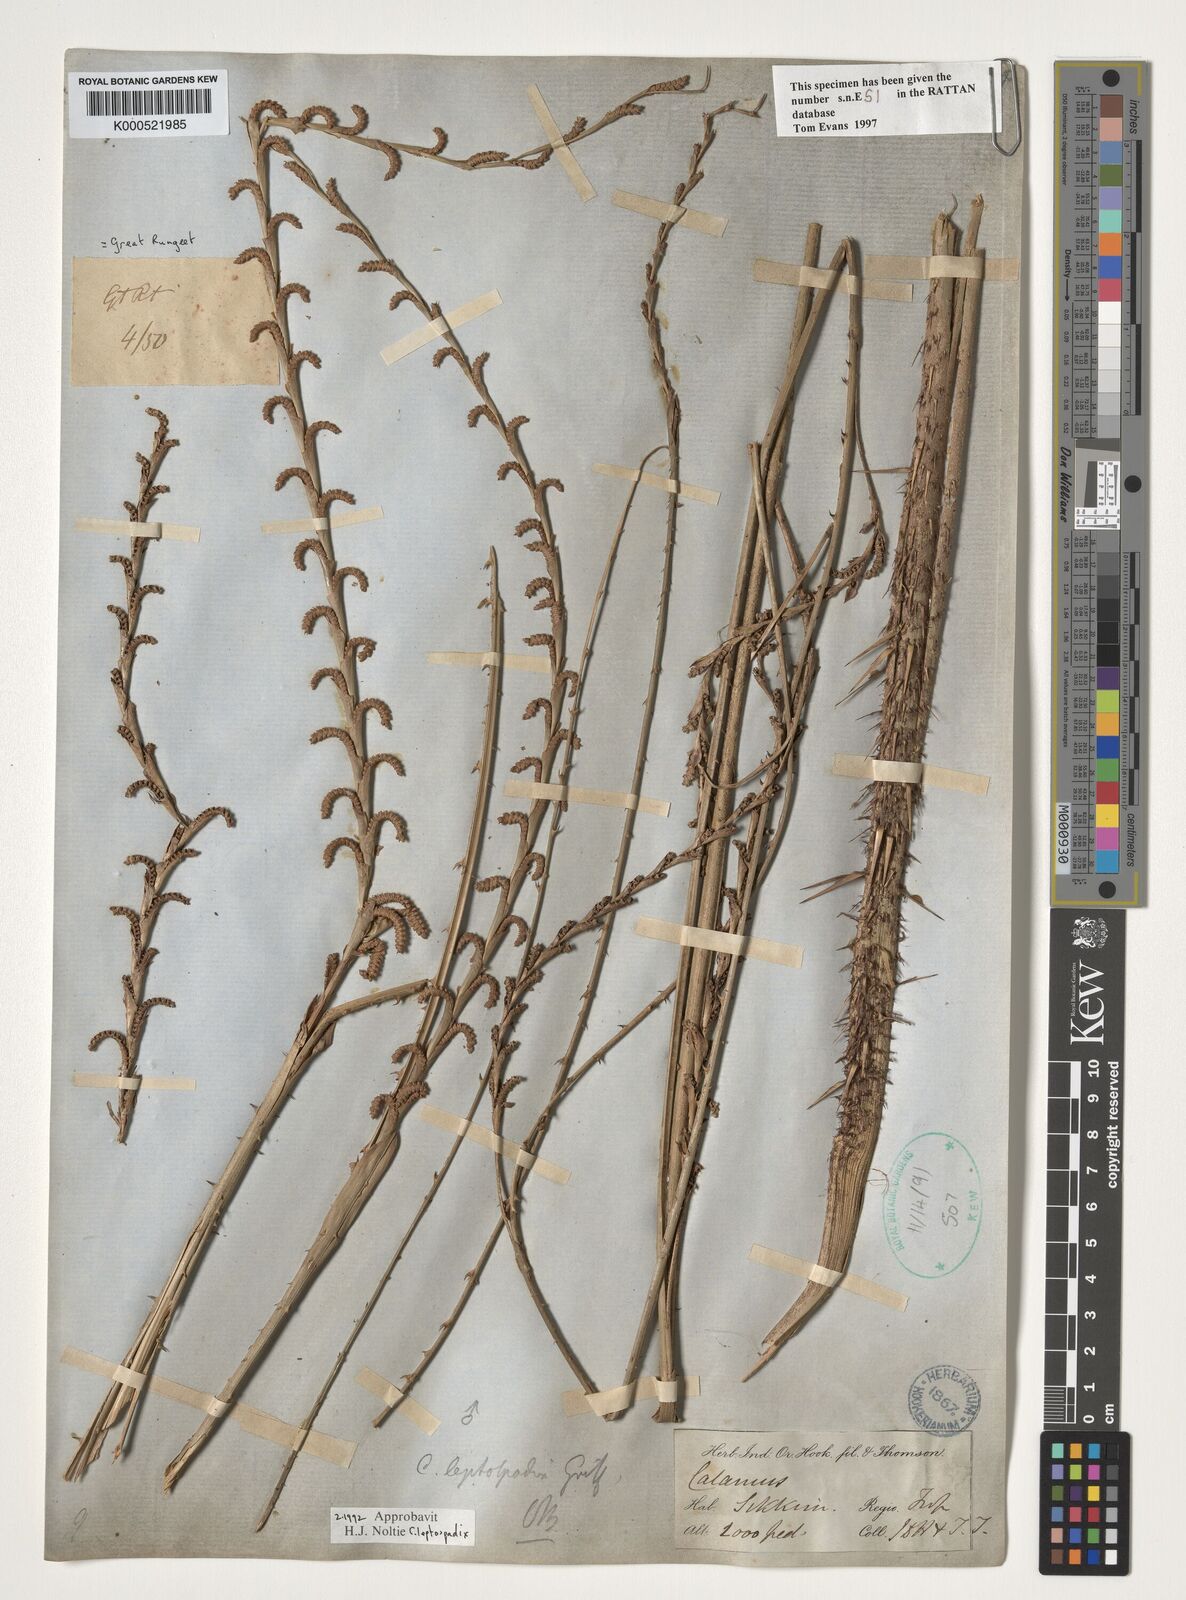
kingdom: Plantae
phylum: Tracheophyta
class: Liliopsida
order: Arecales
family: Arecaceae
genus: Calamus
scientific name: Calamus leptospadix
